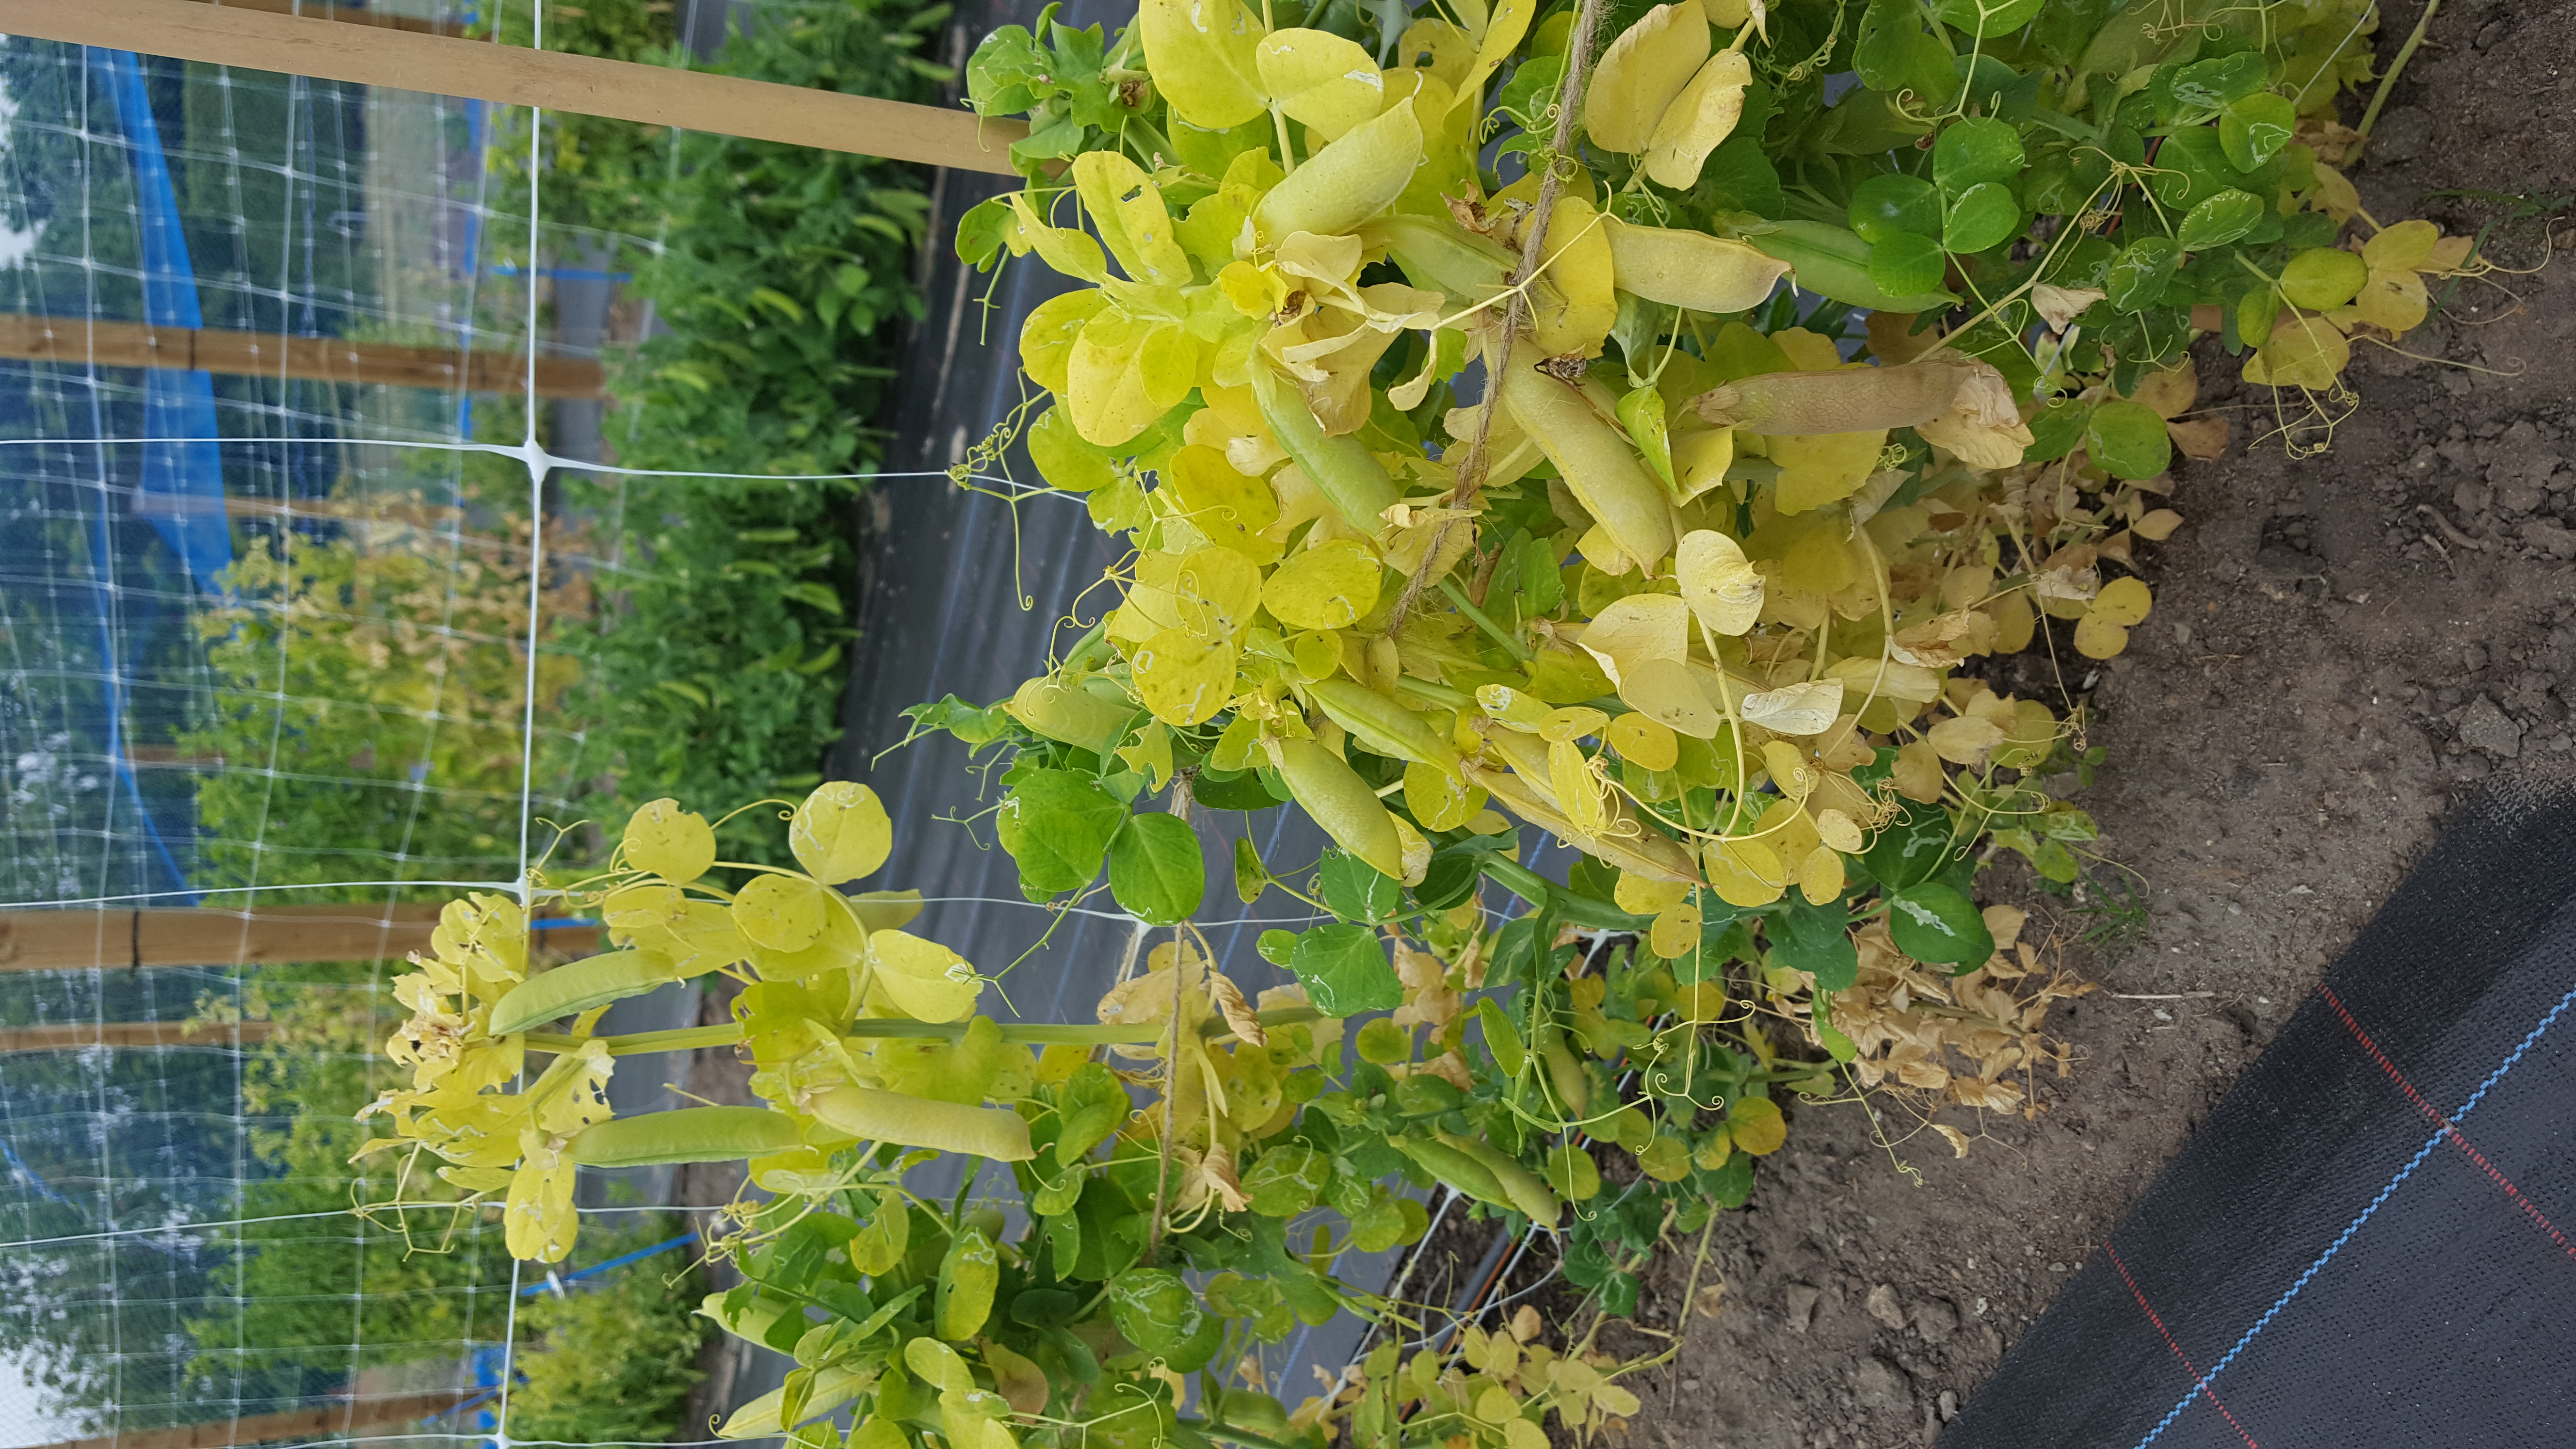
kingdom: Plantae
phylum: Tracheophyta
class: Magnoliopsida
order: Fabales
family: Fabaceae
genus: Lathyrus
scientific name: Lathyrus oleraceus
